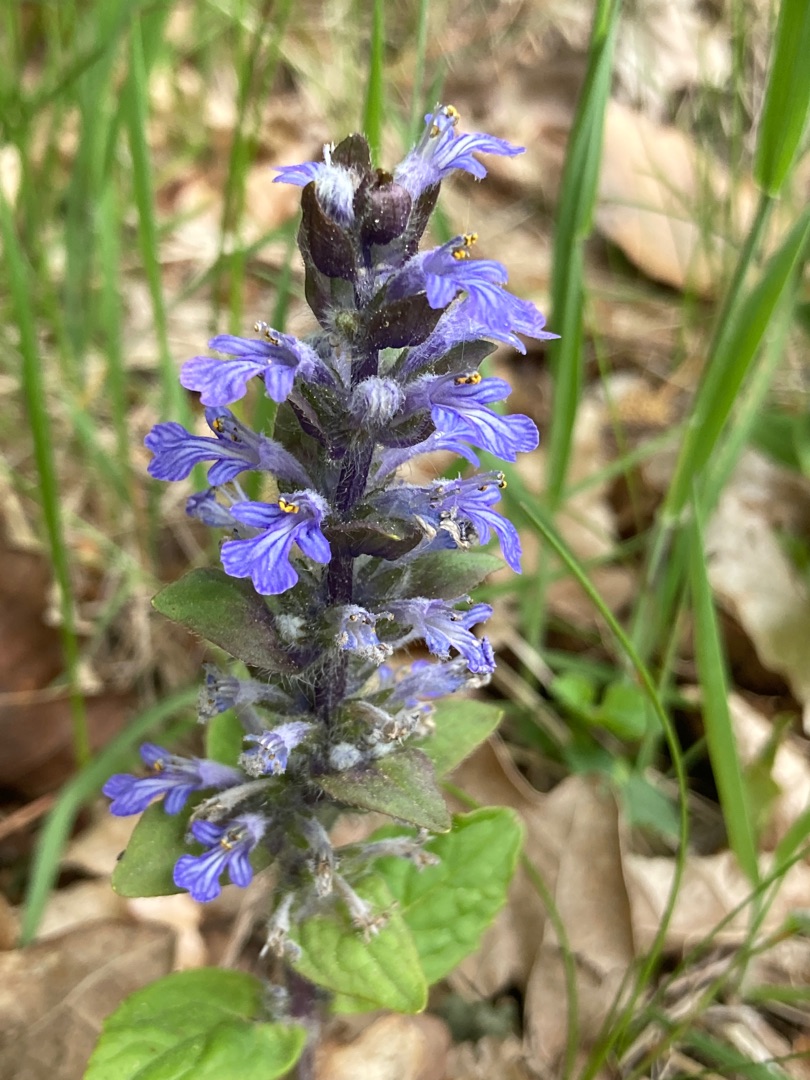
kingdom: Plantae
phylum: Tracheophyta
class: Magnoliopsida
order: Lamiales
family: Lamiaceae
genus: Ajuga
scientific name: Ajuga reptans
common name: Krybende læbeløs
